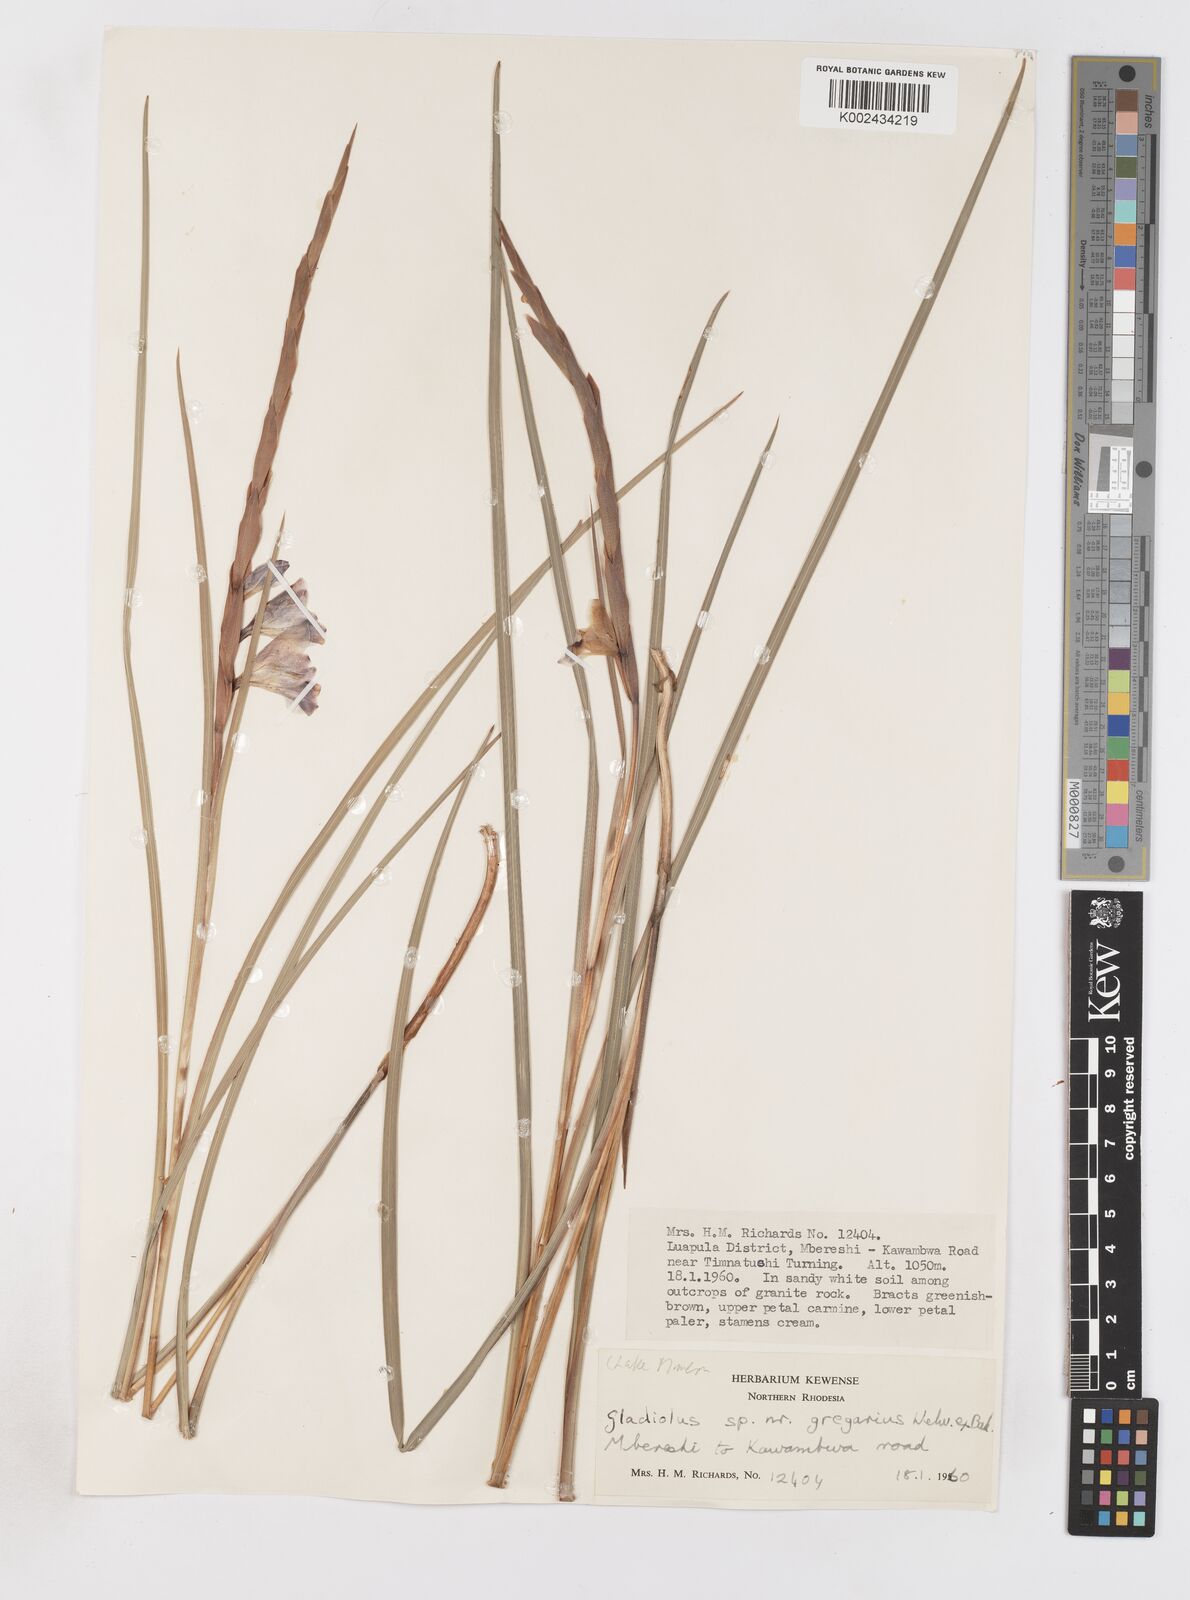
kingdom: Plantae
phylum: Tracheophyta
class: Liliopsida
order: Asparagales
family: Iridaceae
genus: Gladiolus
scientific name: Gladiolus gregarius
